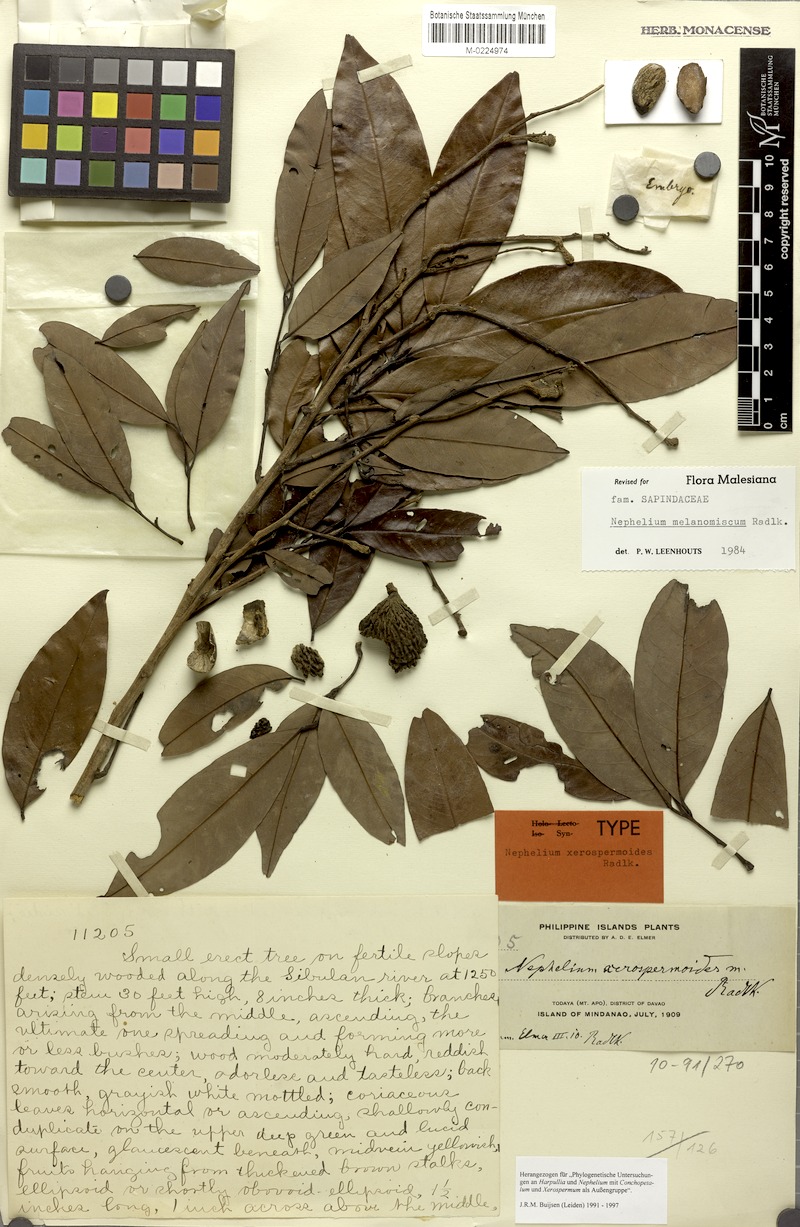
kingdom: Plantae
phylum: Tracheophyta
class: Magnoliopsida
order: Sapindales
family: Sapindaceae
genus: Nephelium
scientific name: Nephelium melanomiscum
